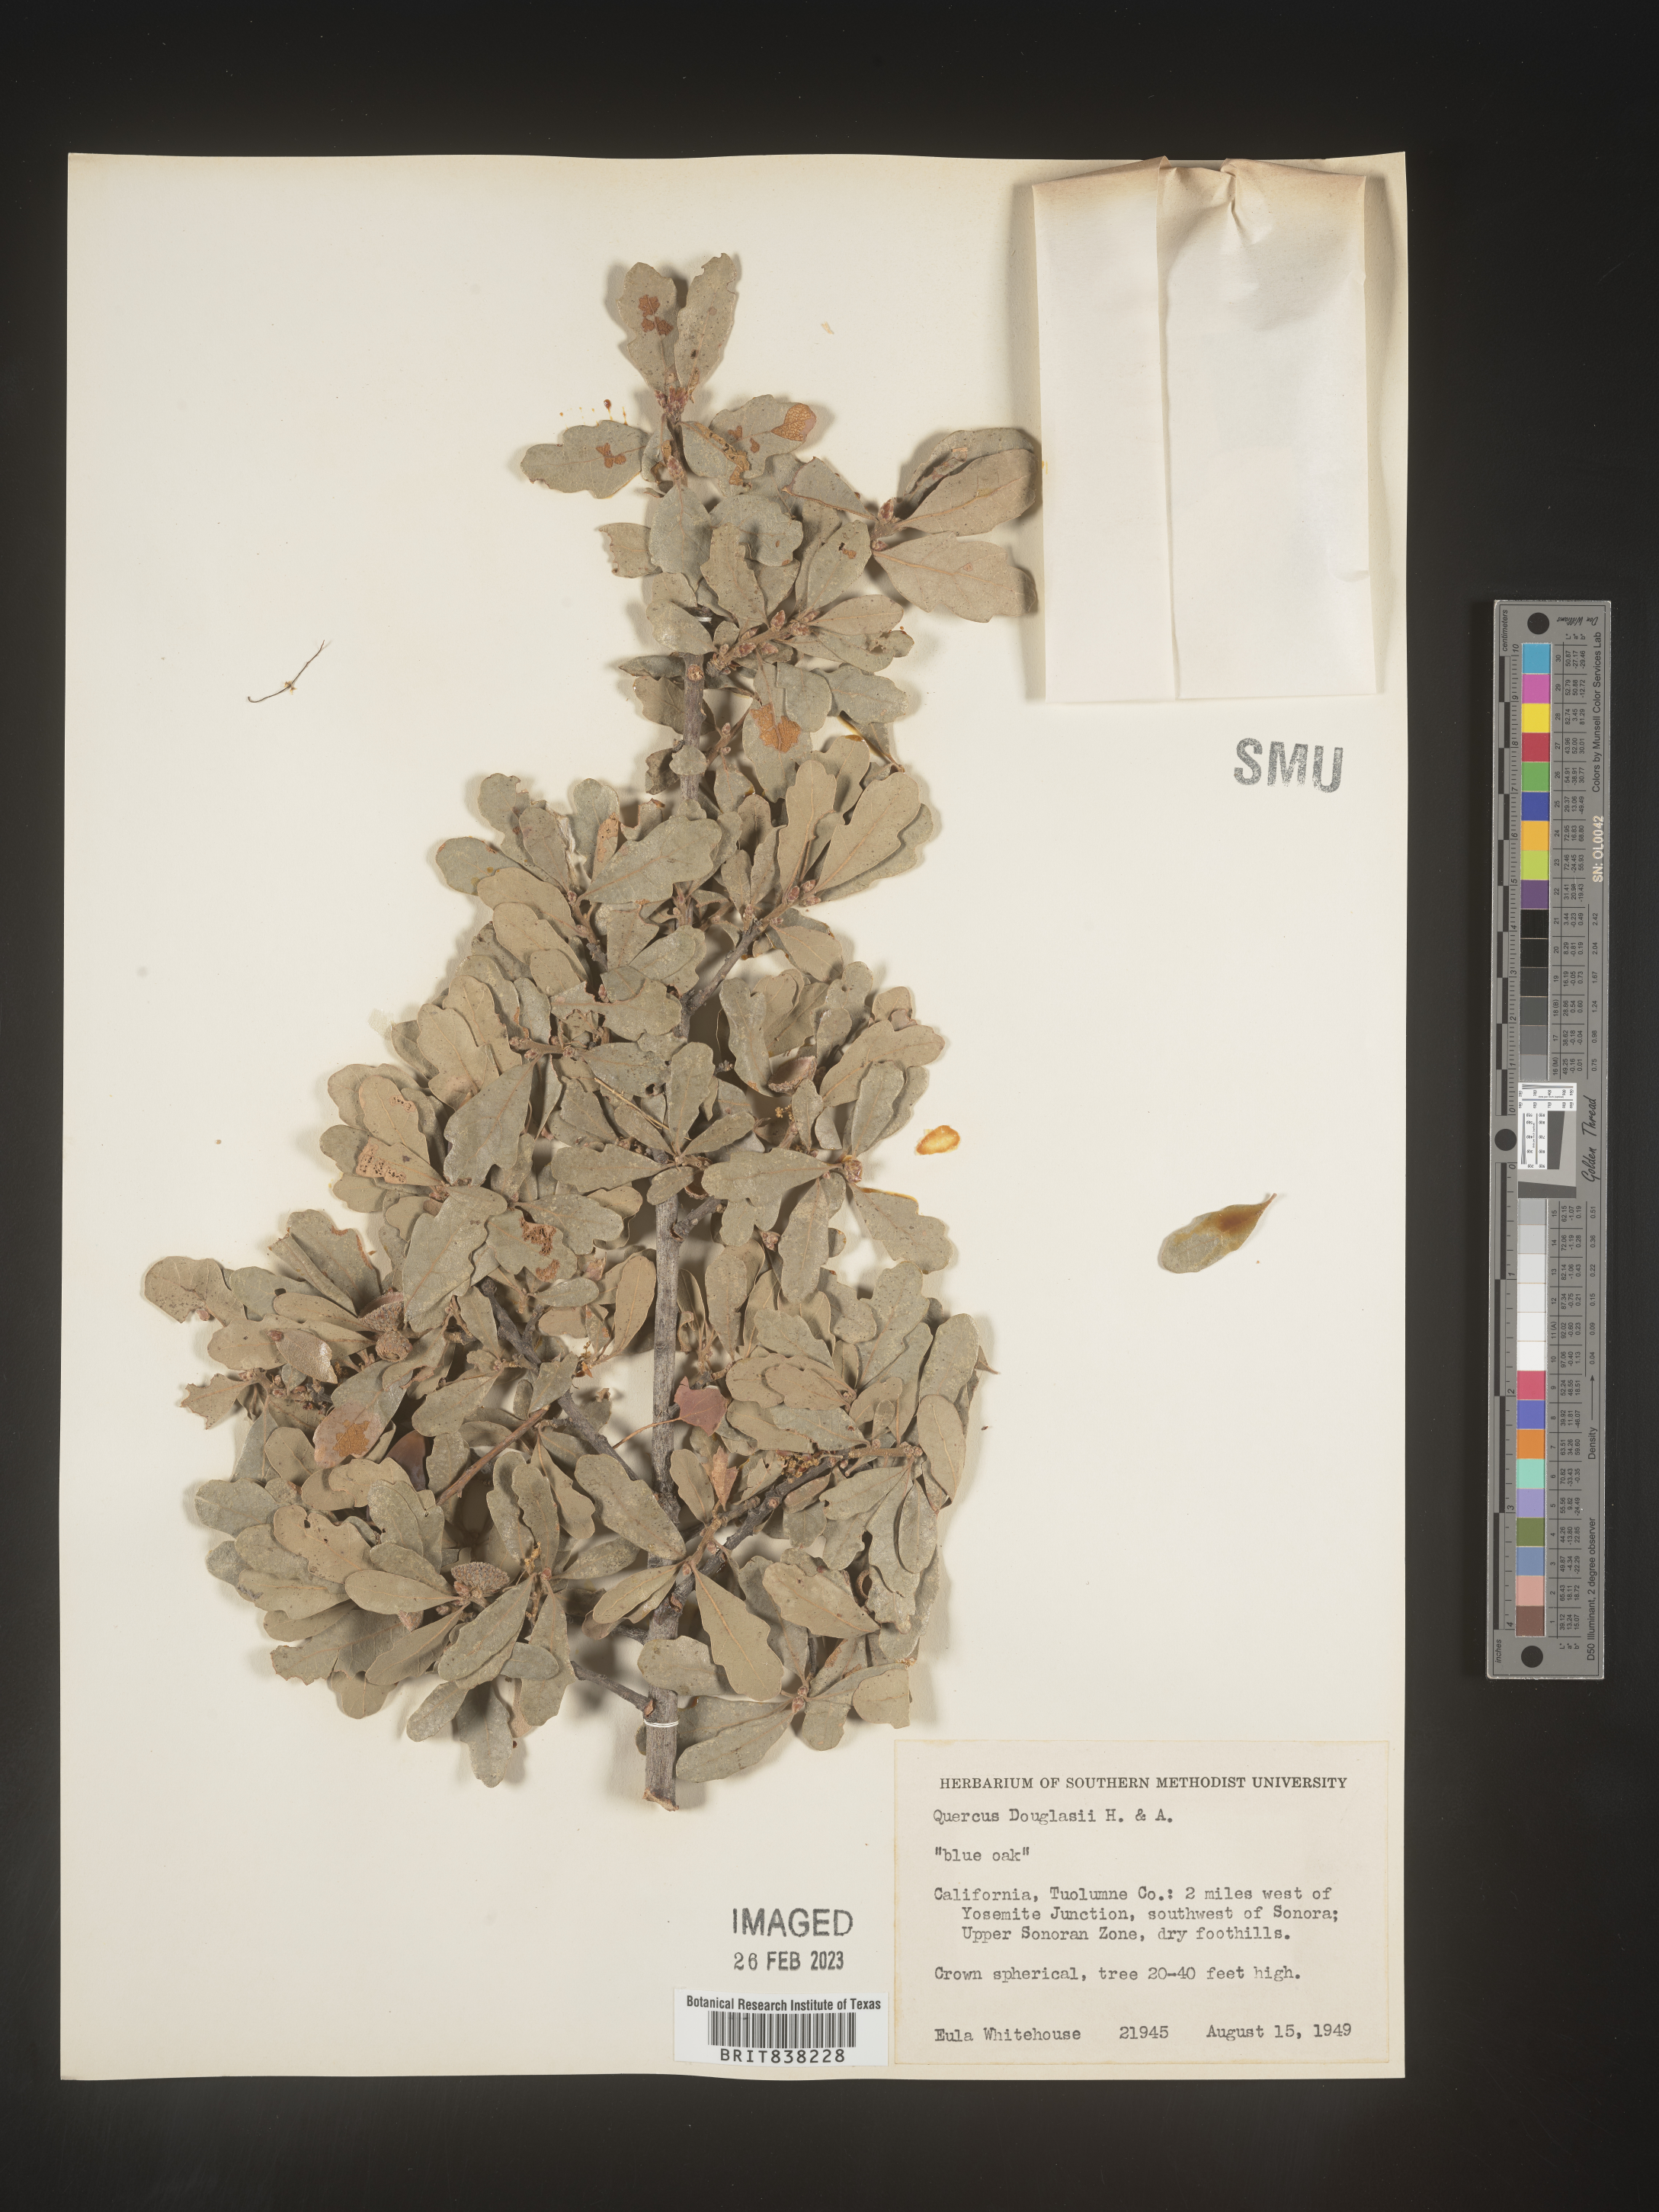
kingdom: Plantae
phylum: Tracheophyta
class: Magnoliopsida
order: Fagales
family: Fagaceae
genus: Quercus
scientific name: Quercus douglasii
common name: Blue oak
